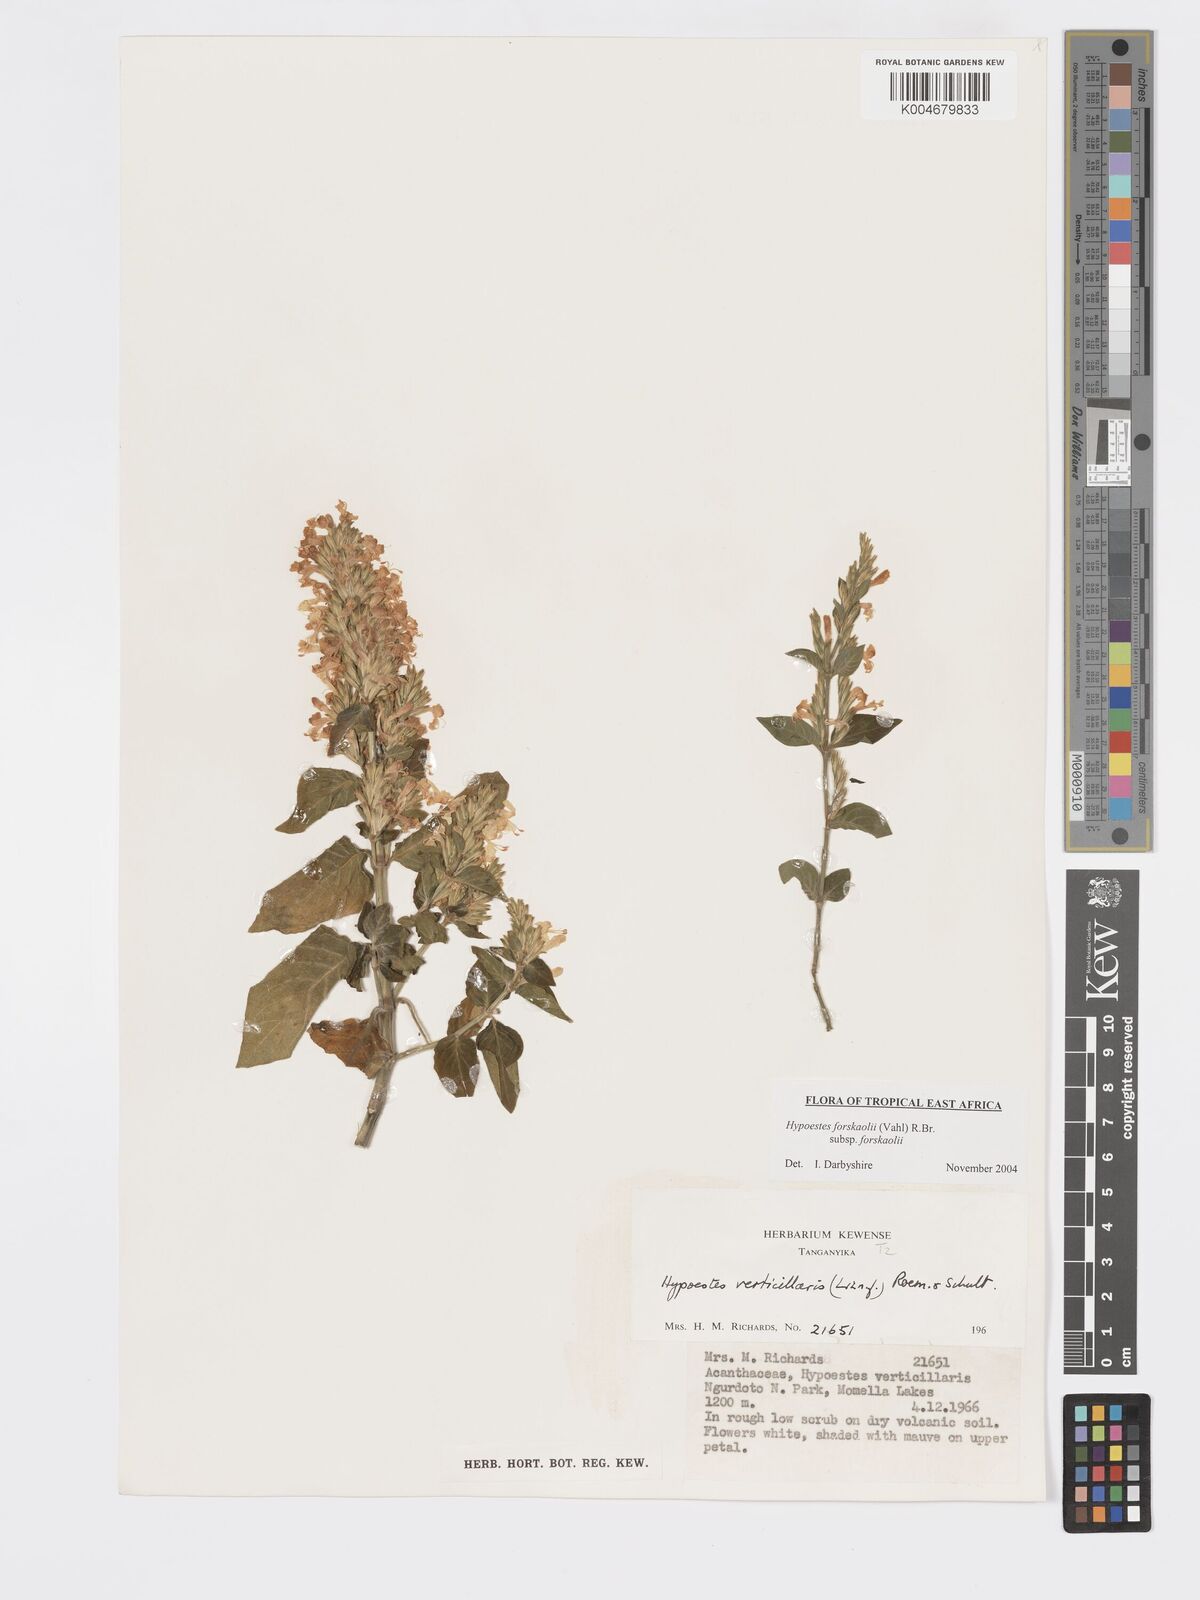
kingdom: Plantae
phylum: Tracheophyta
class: Magnoliopsida
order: Lamiales
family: Acanthaceae
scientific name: Acanthaceae
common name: Acanthaceae
